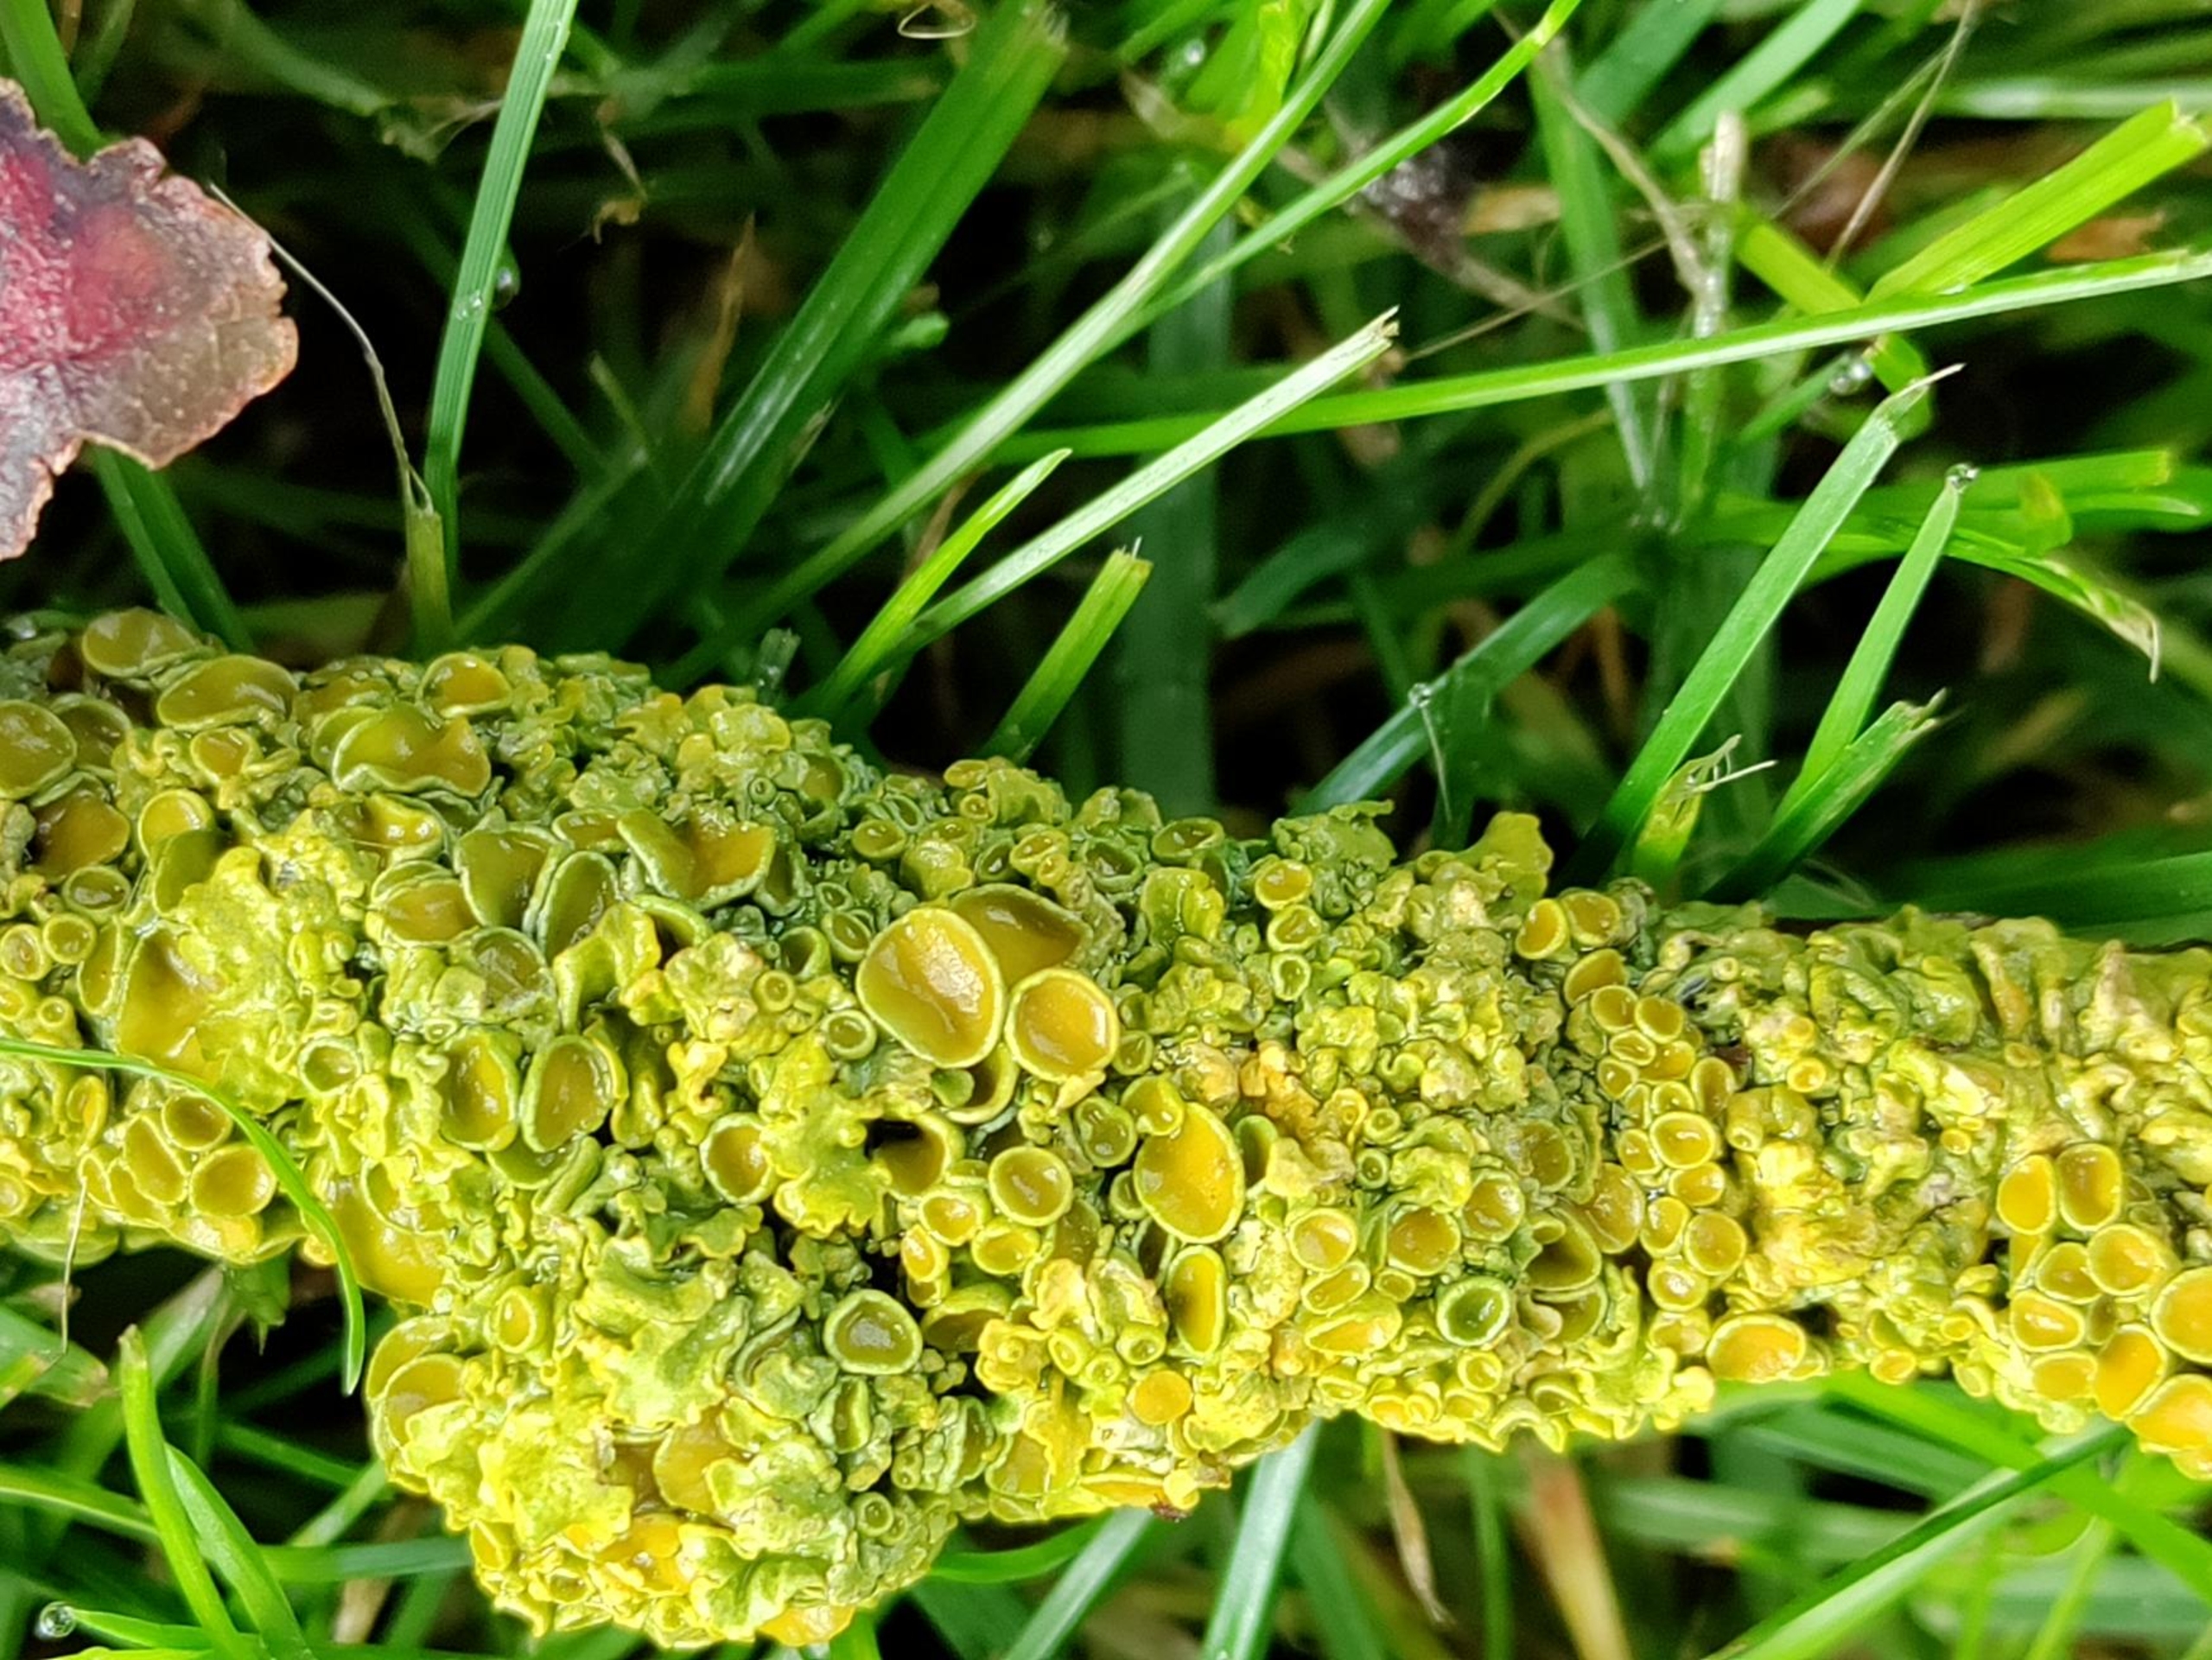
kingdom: Fungi
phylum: Ascomycota
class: Lecanoromycetes
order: Teloschistales
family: Teloschistaceae
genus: Xanthoria
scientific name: Xanthoria parietina
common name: Almindelig væggelav
